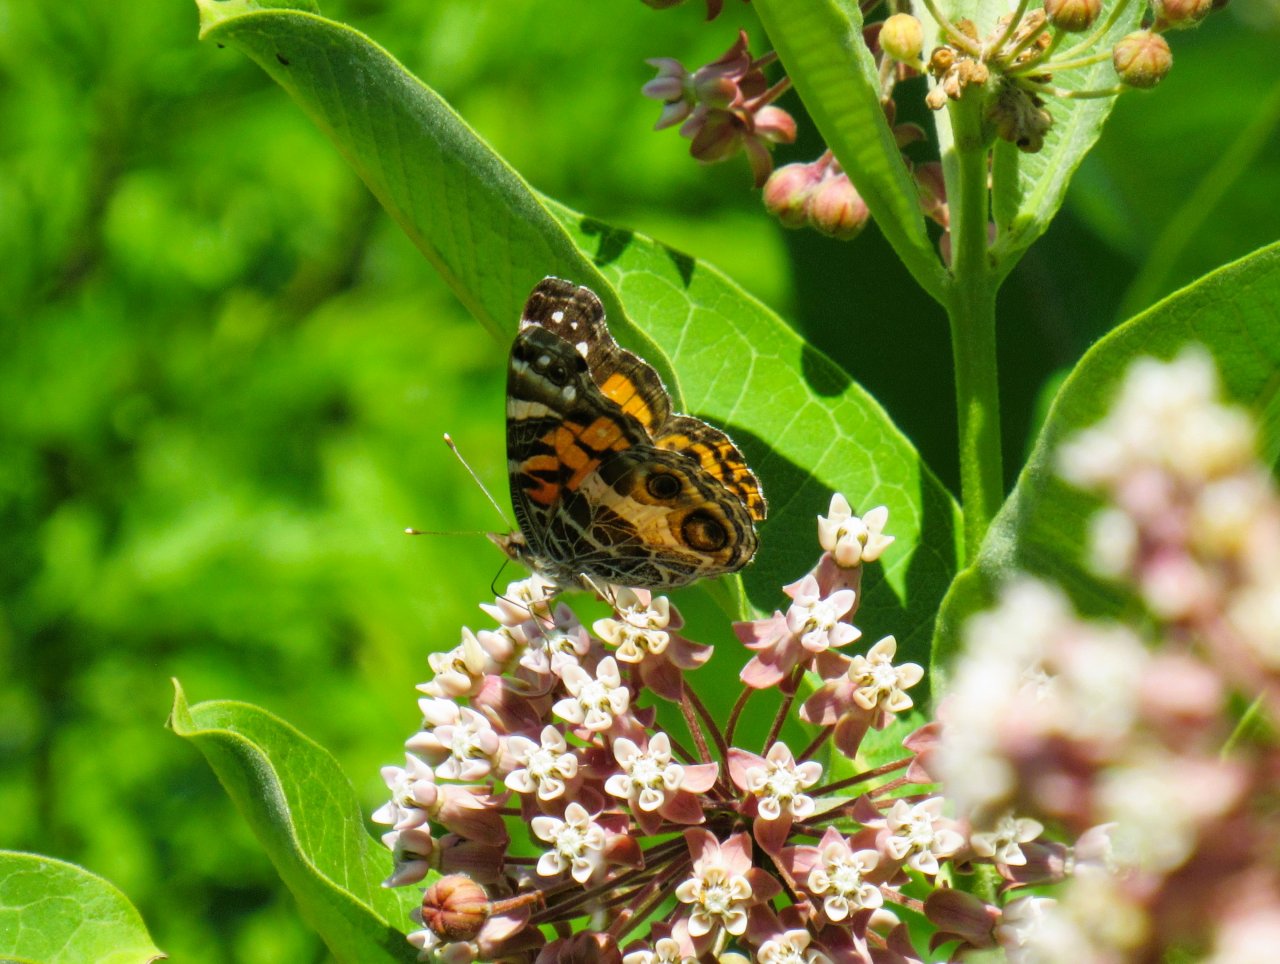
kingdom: Animalia
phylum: Arthropoda
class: Insecta
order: Lepidoptera
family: Nymphalidae
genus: Vanessa
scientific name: Vanessa virginiensis
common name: American Lady
